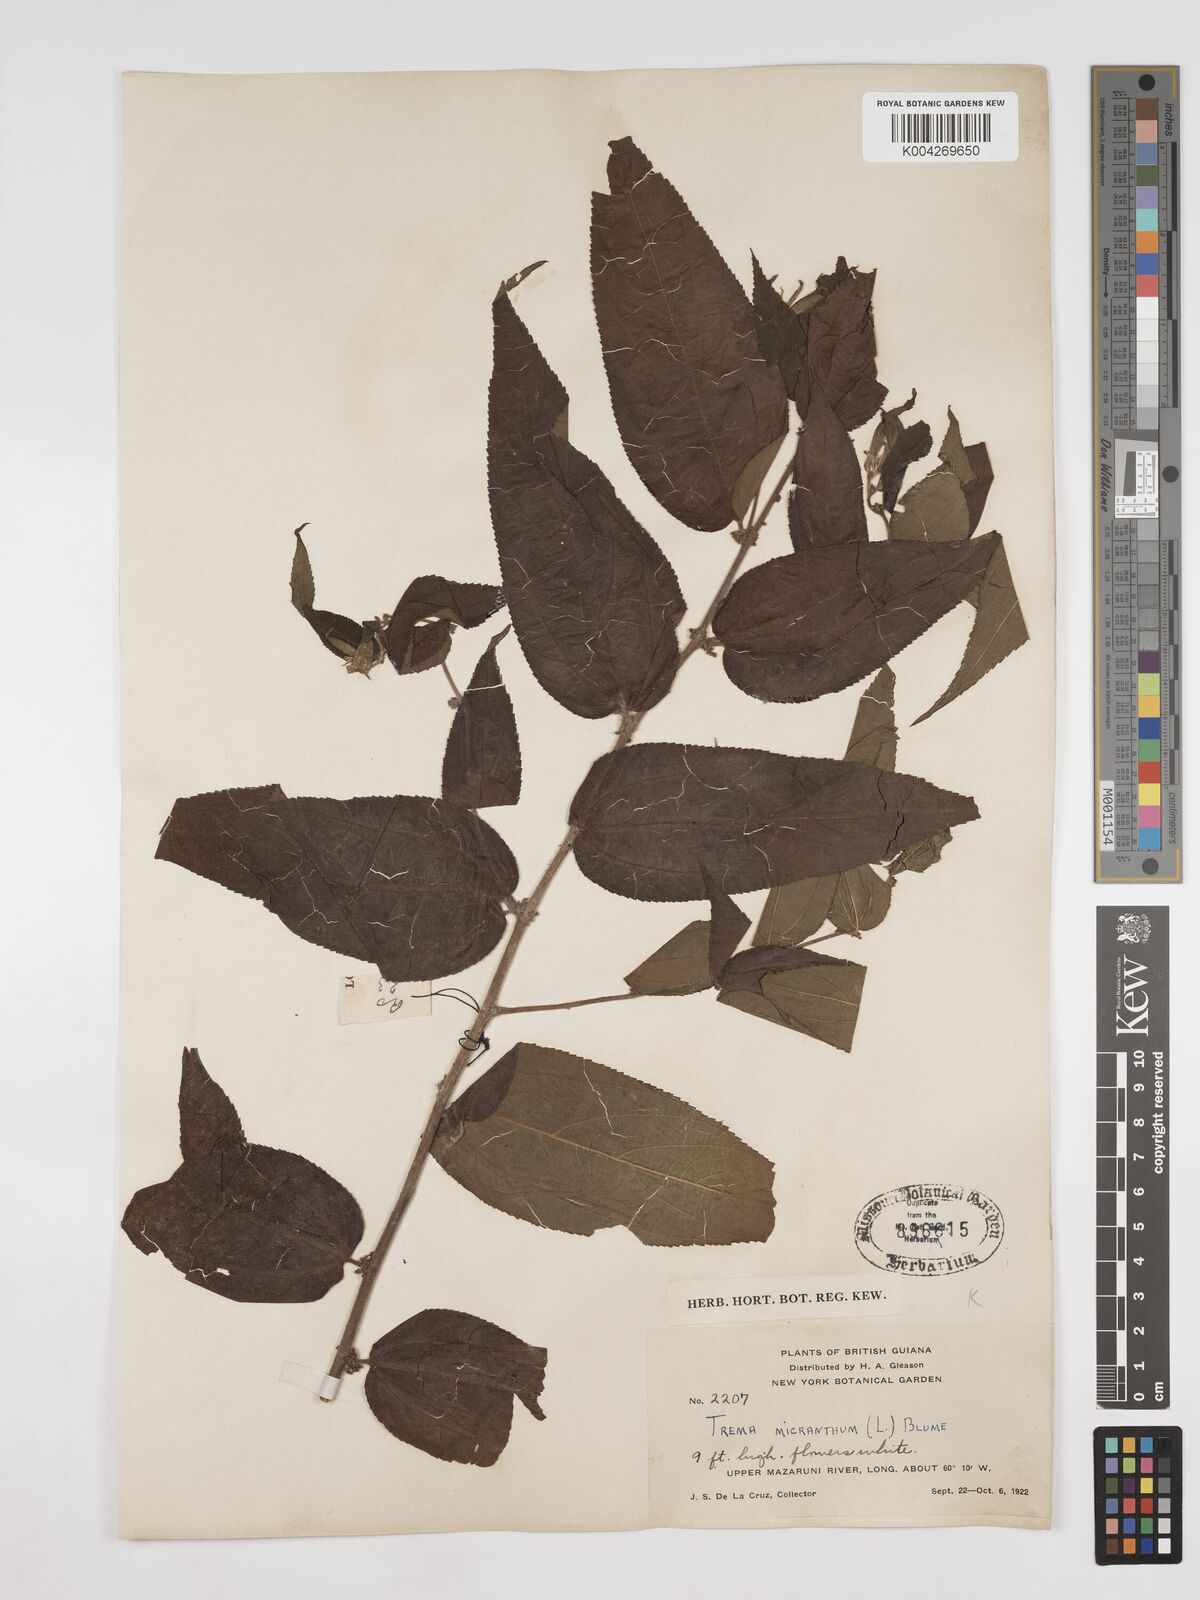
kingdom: Plantae
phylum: Tracheophyta
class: Magnoliopsida
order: Rosales
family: Cannabaceae
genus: Trema
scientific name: Trema micranthum
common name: Jamaican nettletree
